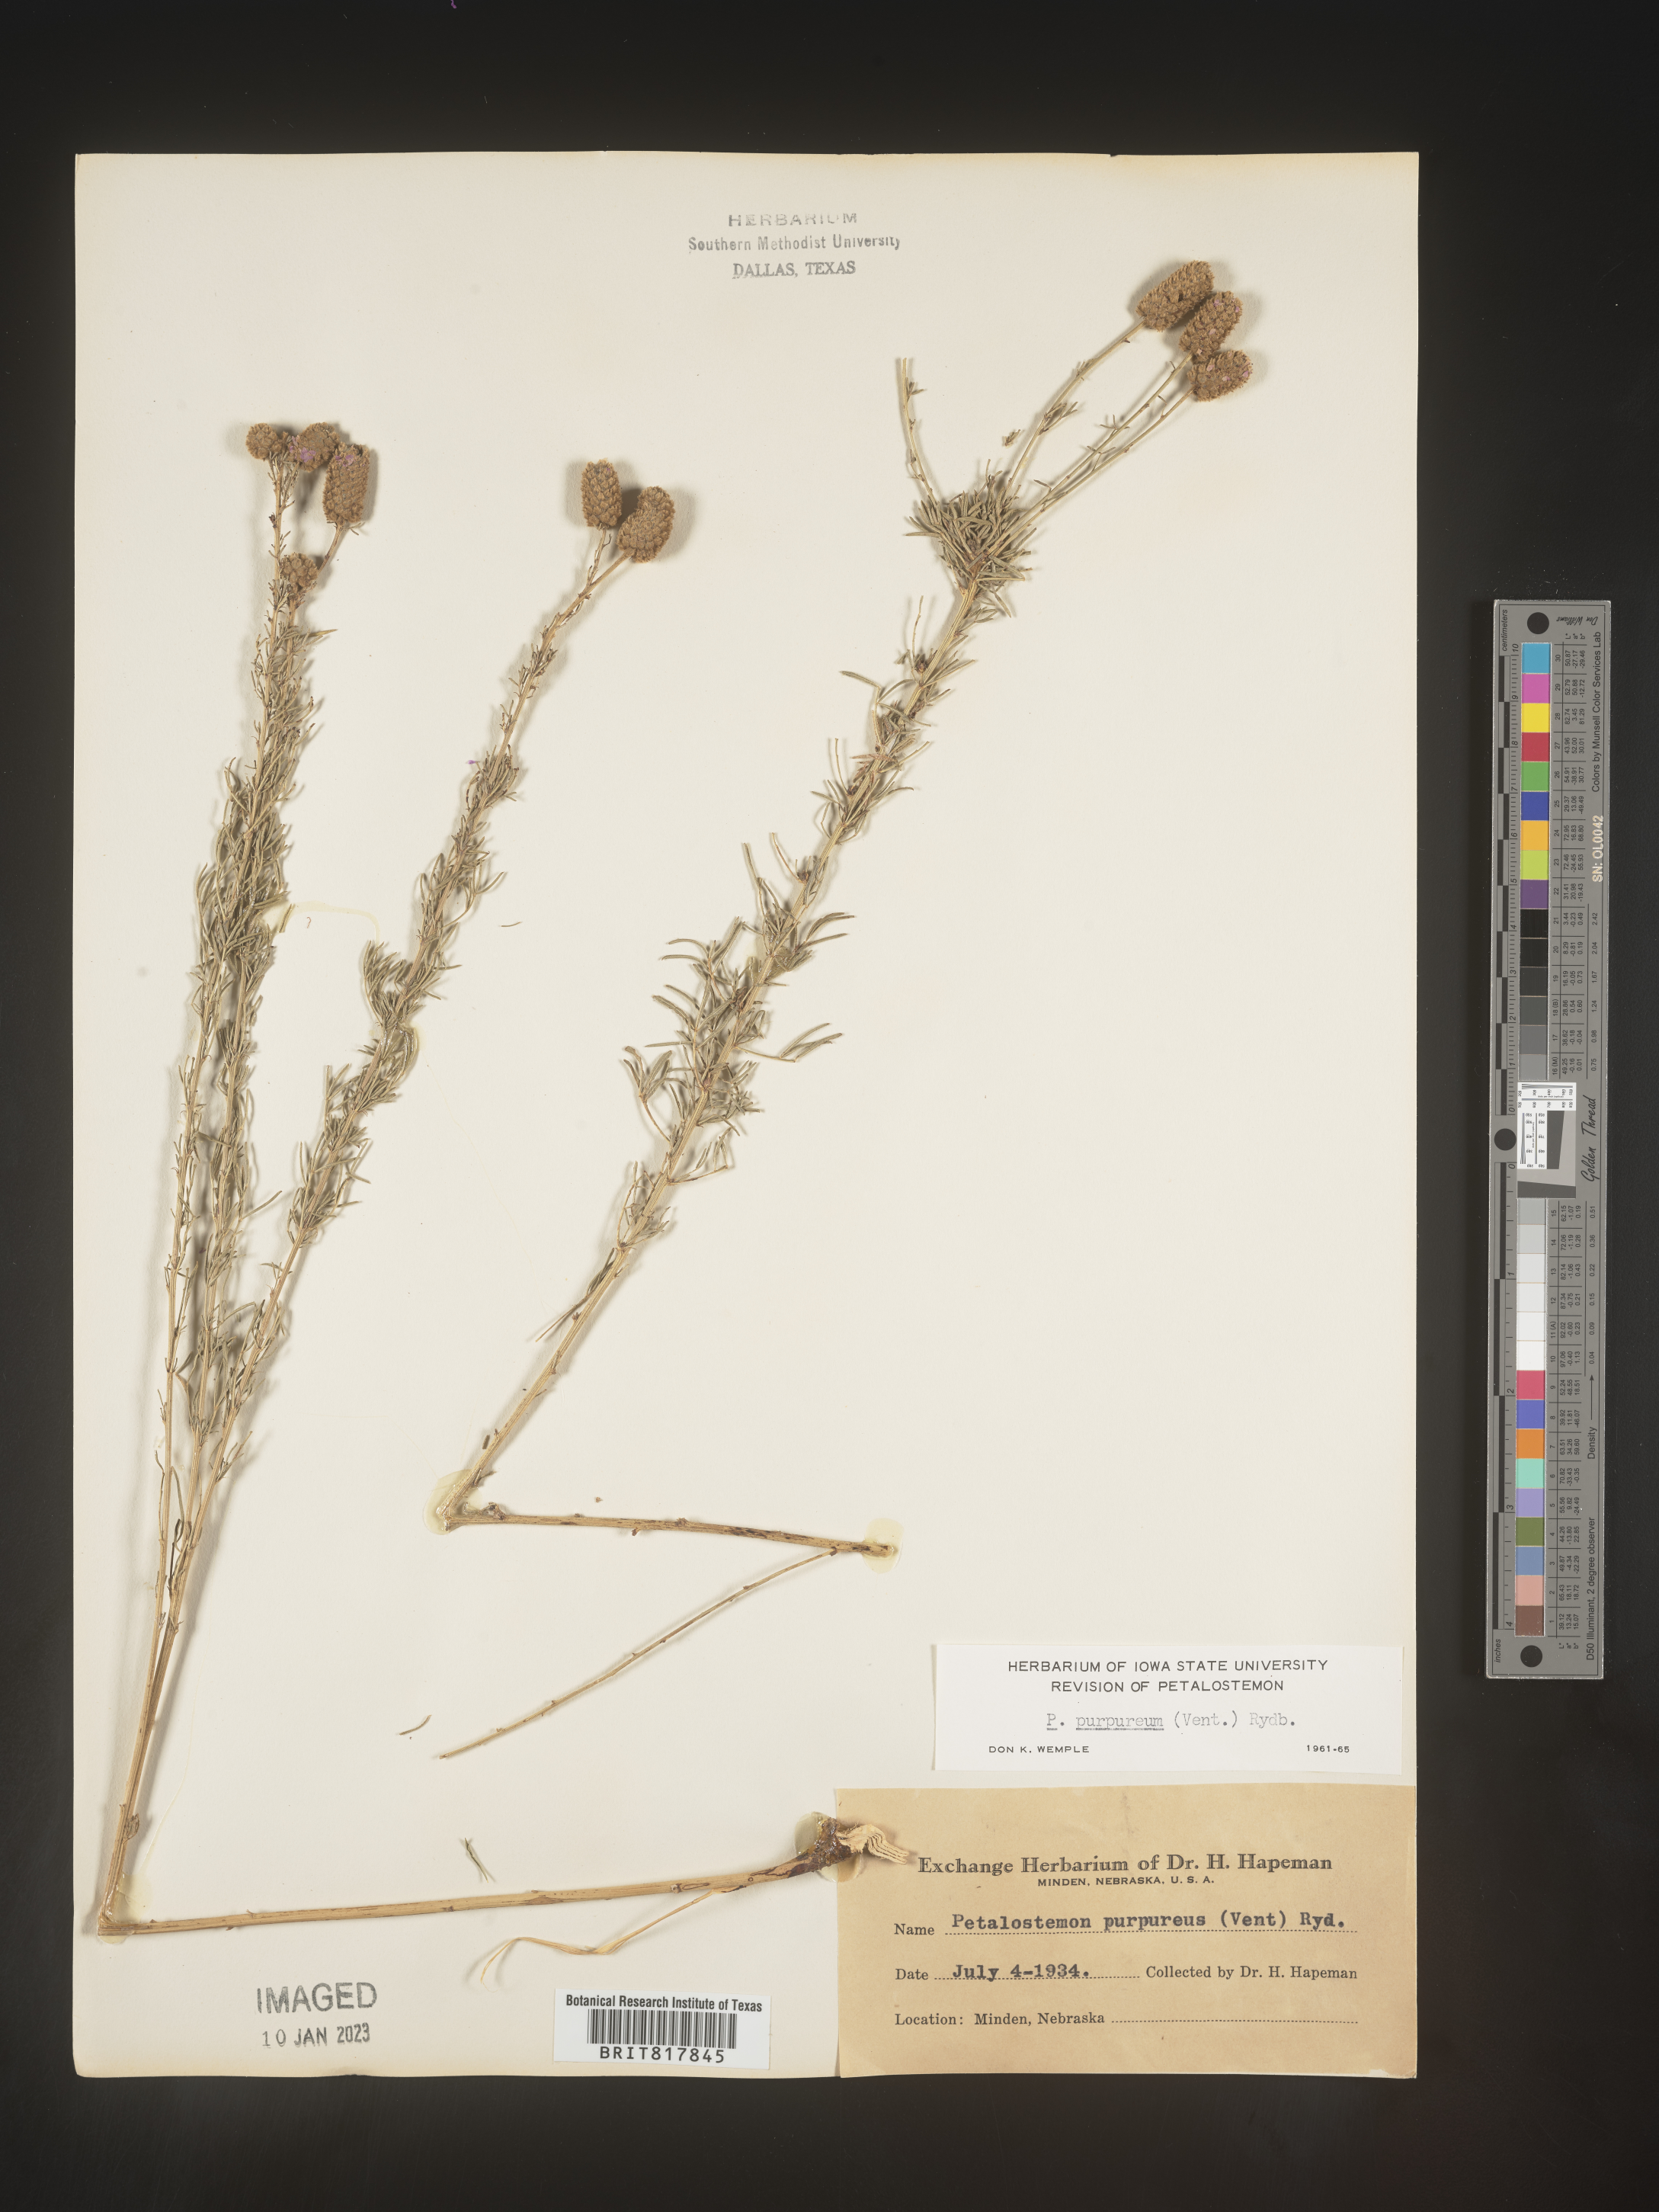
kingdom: Plantae
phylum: Tracheophyta
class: Magnoliopsida
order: Fabales
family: Fabaceae
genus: Dalea
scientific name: Dalea purpurea
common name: Purple prairie-clover
